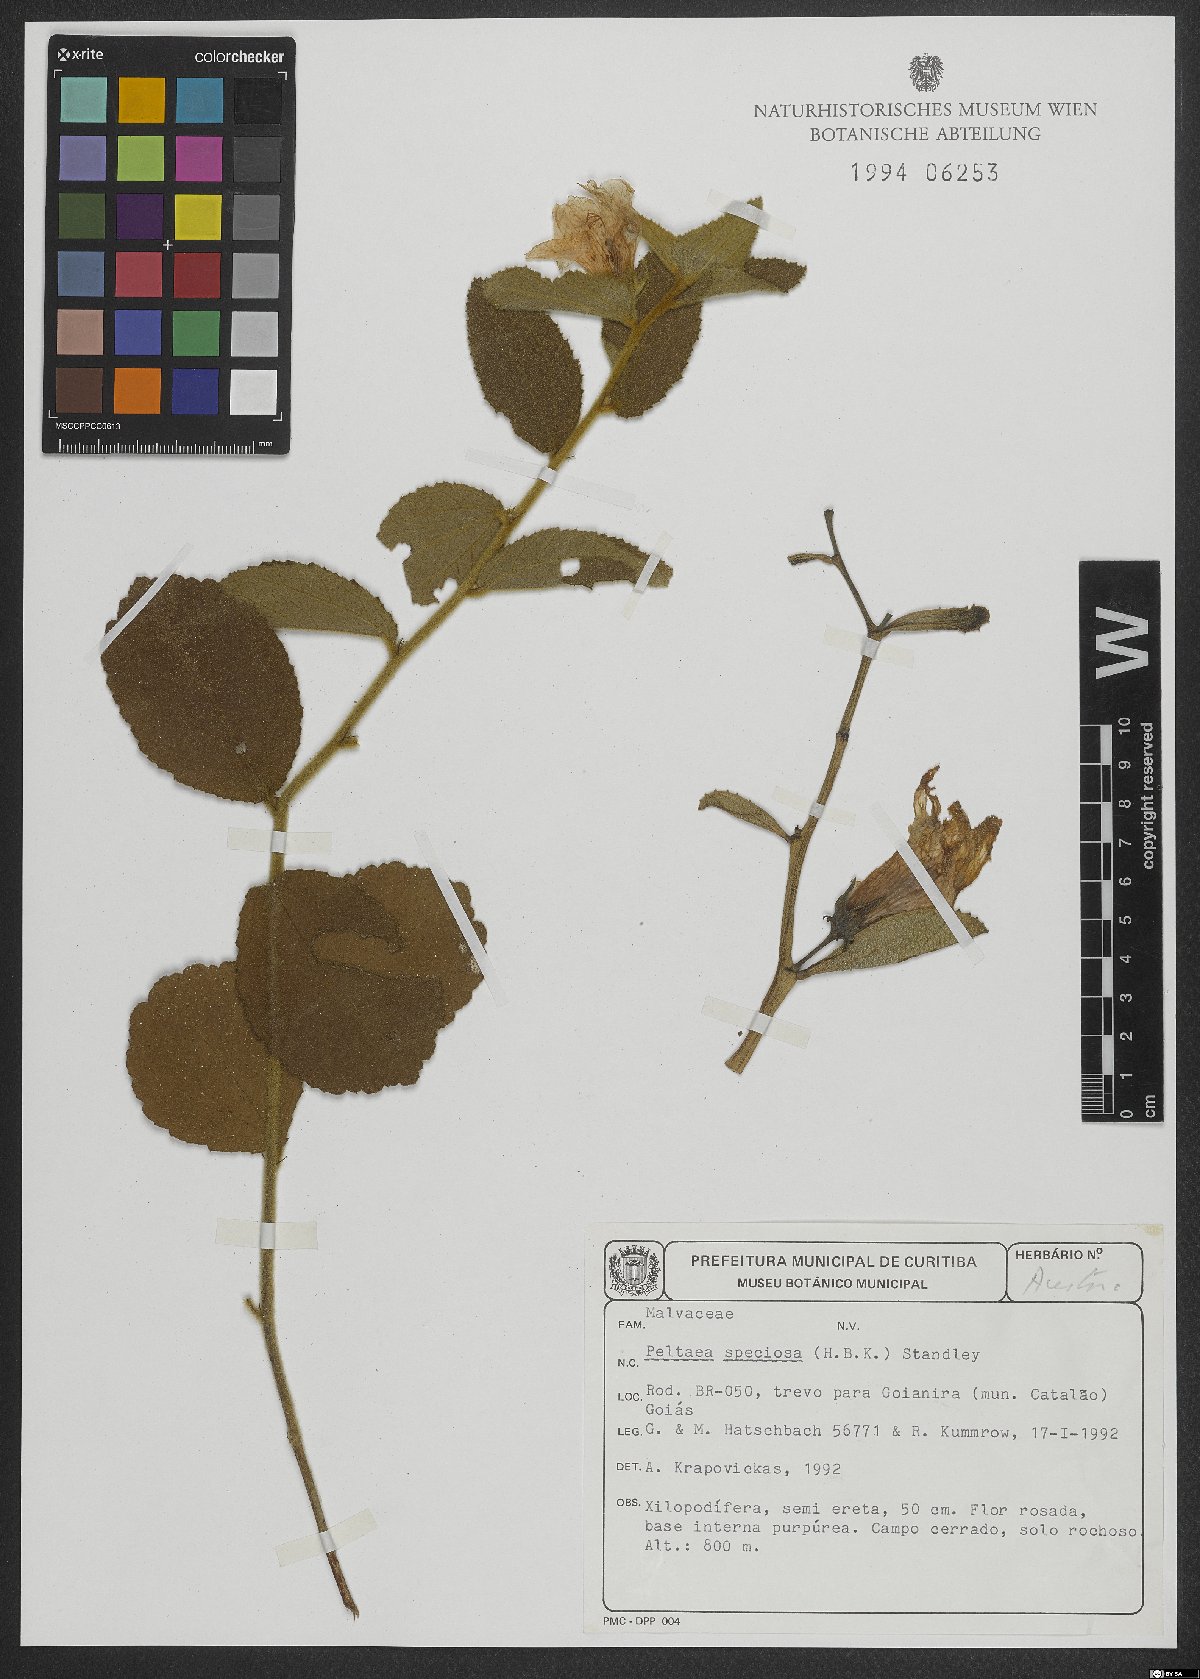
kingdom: Plantae
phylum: Tracheophyta
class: Magnoliopsida
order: Malvales
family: Malvaceae
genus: Peltaea
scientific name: Peltaea speciosa
